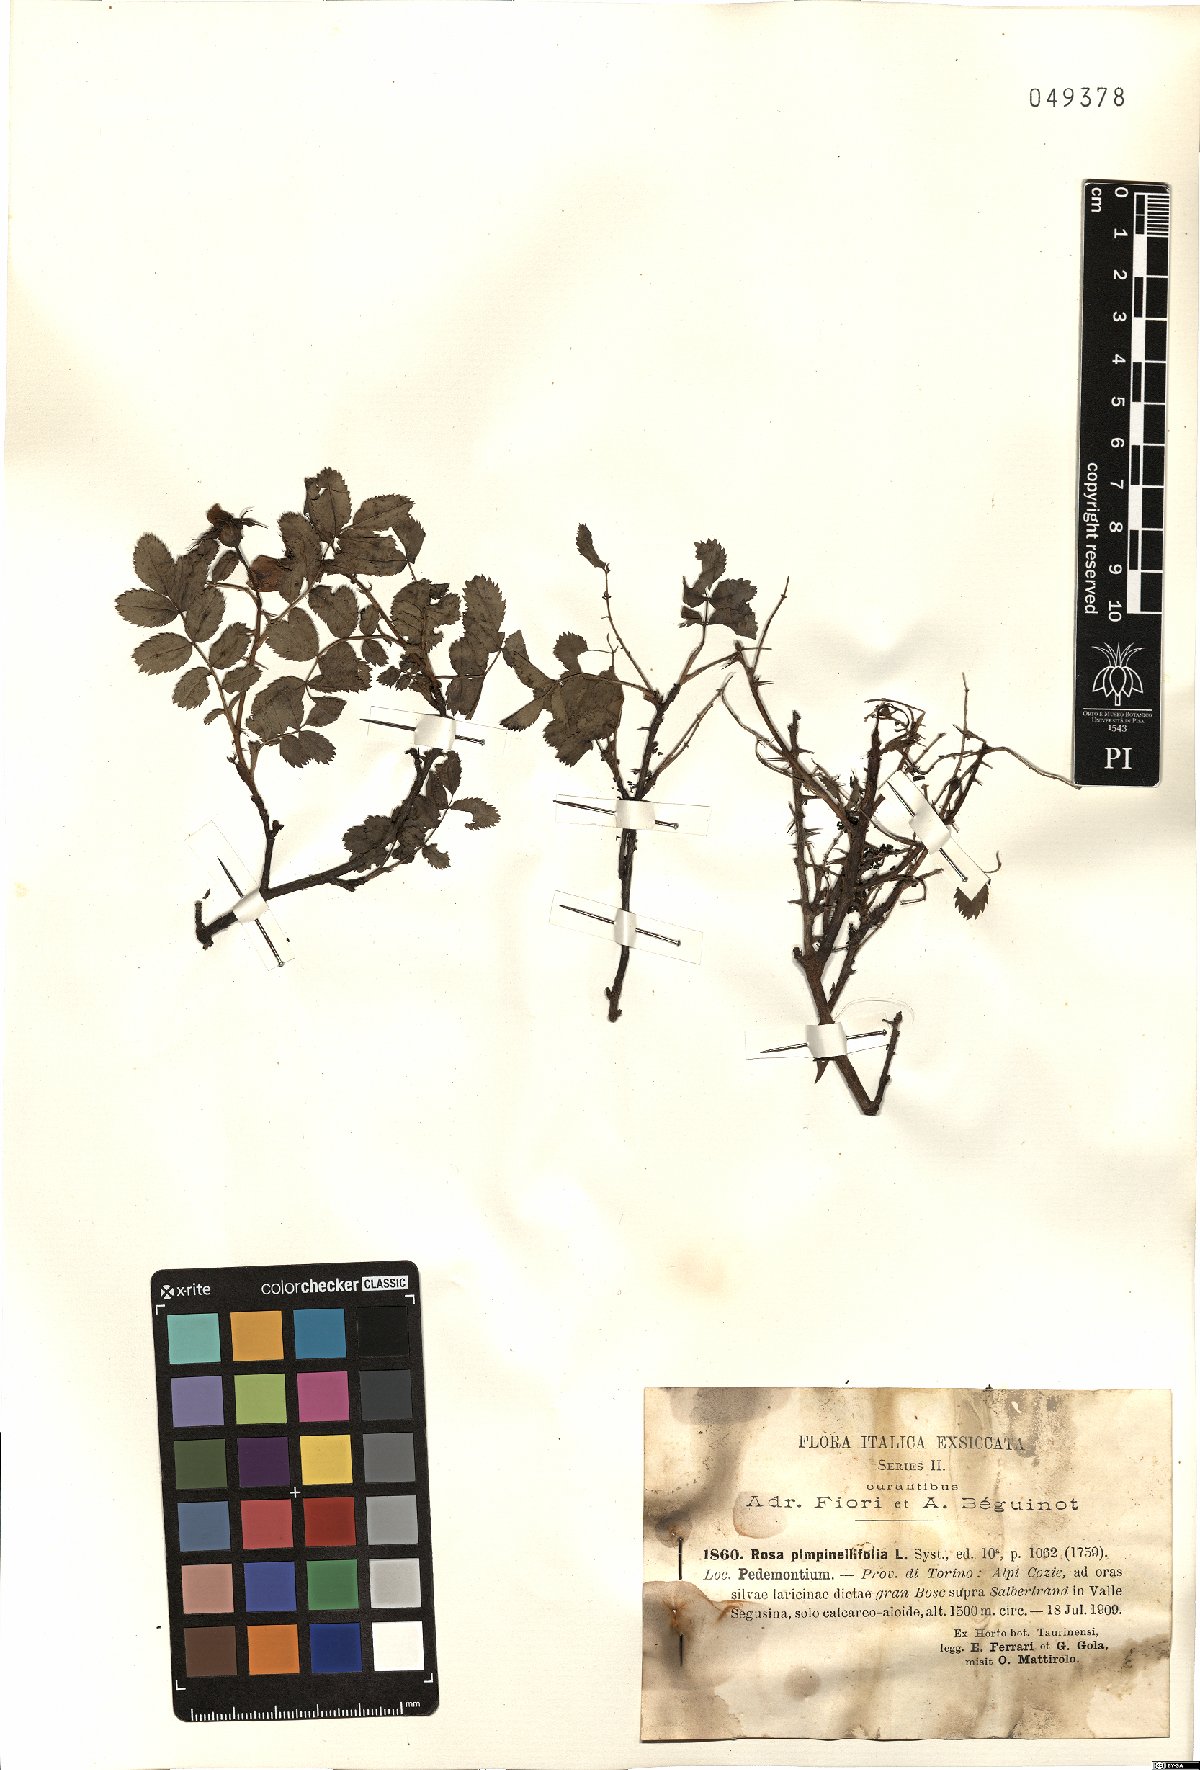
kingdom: Plantae
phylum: Tracheophyta
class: Magnoliopsida
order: Rosales
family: Rosaceae
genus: Rosa
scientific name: Rosa spinosissima
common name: Burnet rose
